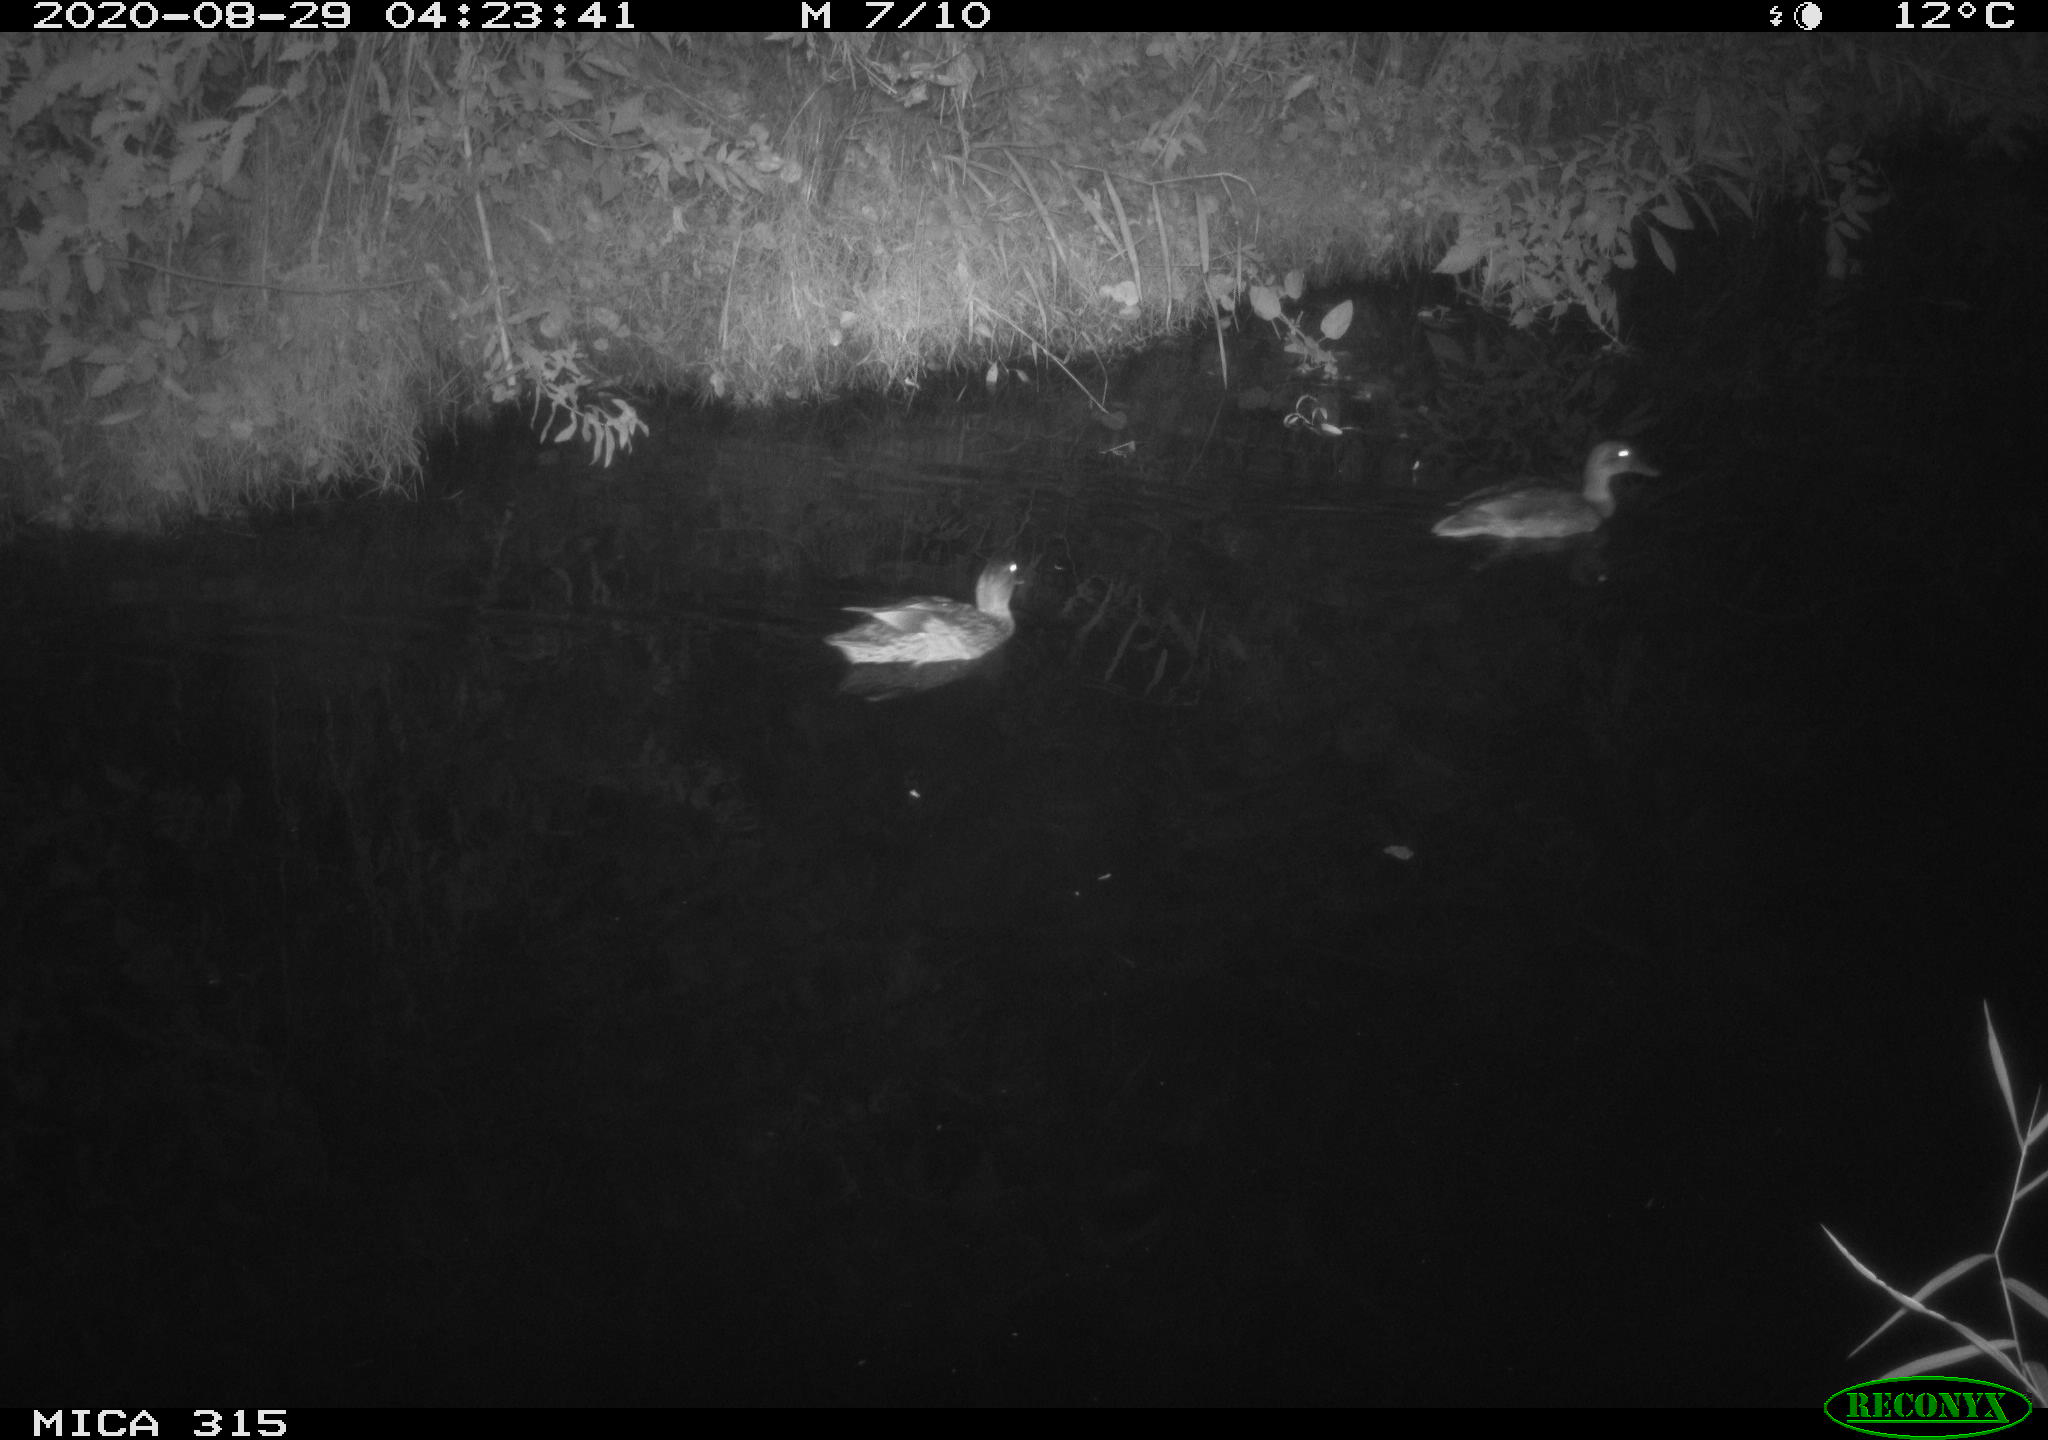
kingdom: Animalia
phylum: Chordata
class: Aves
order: Anseriformes
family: Anatidae
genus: Anas
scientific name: Anas platyrhynchos
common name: Mallard
